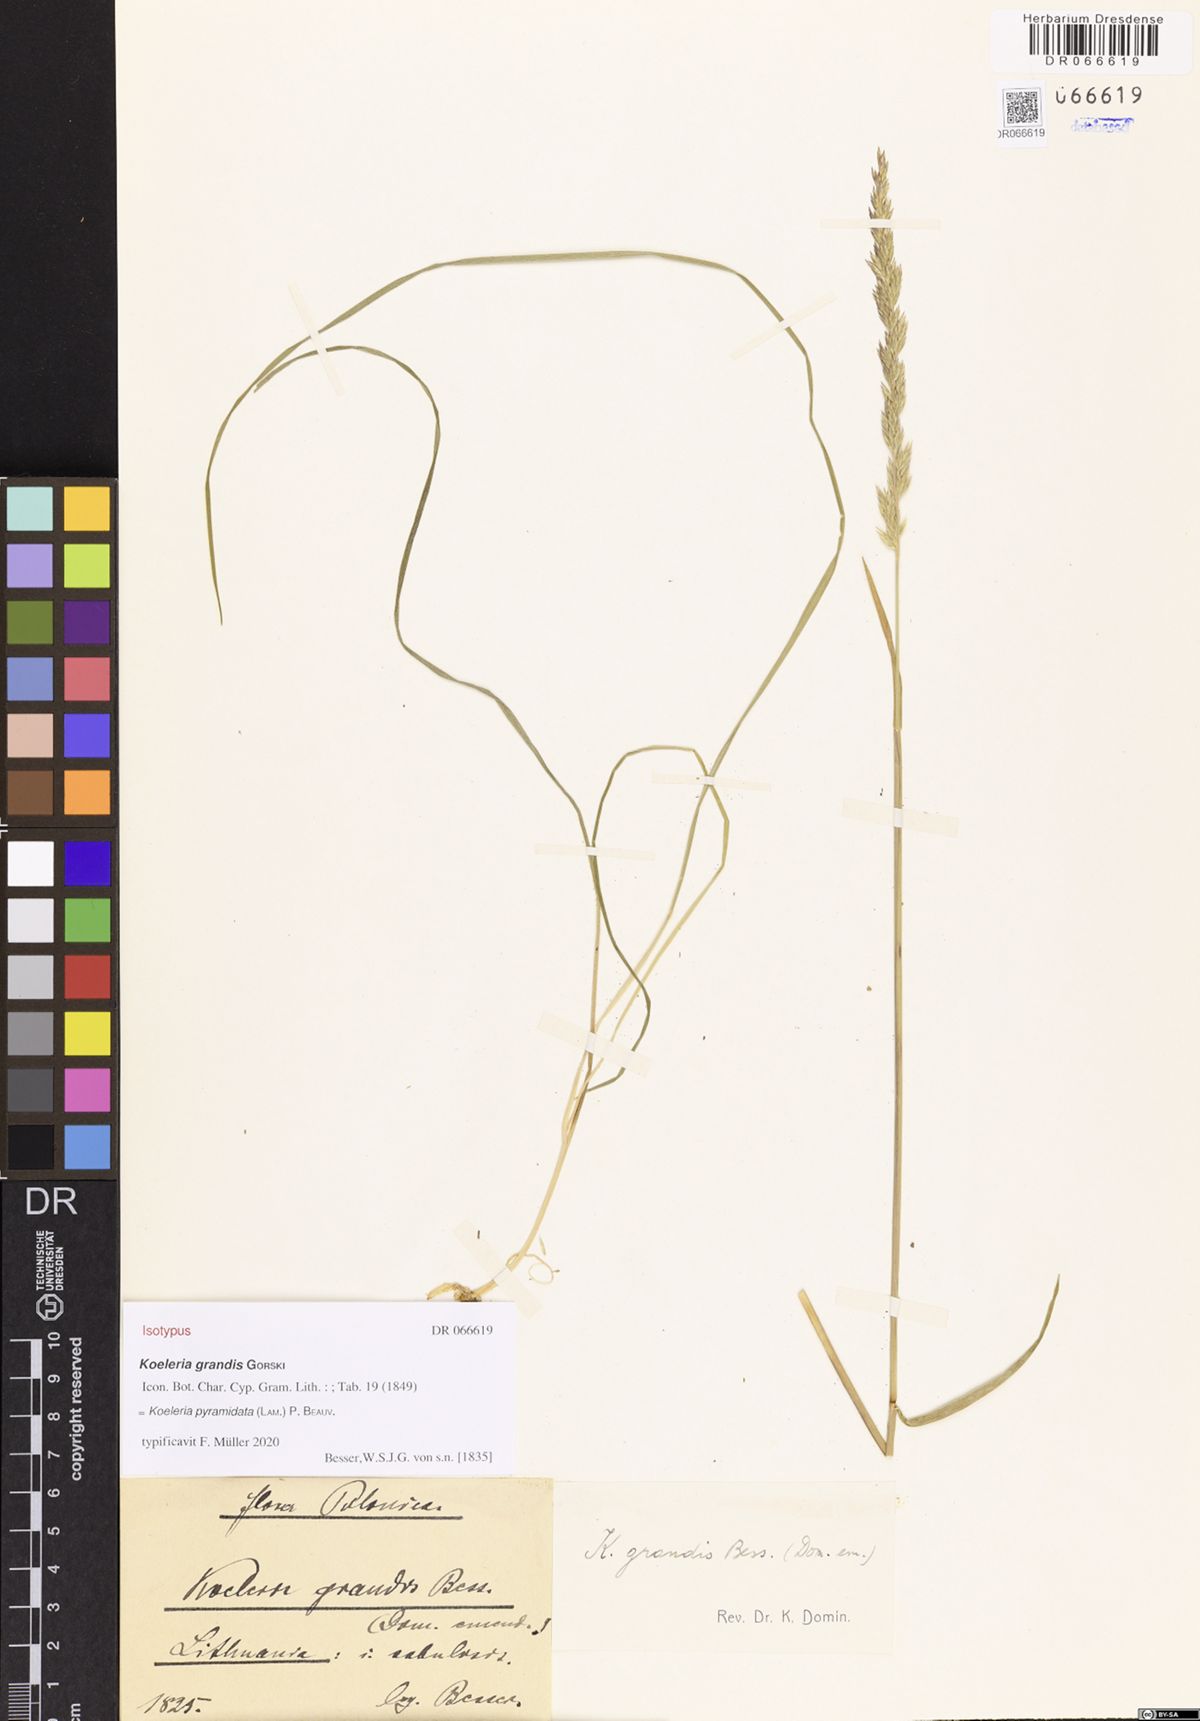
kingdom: Plantae
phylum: Tracheophyta
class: Liliopsida
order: Poales
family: Poaceae
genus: Koeleria
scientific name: Koeleria pyramidata
